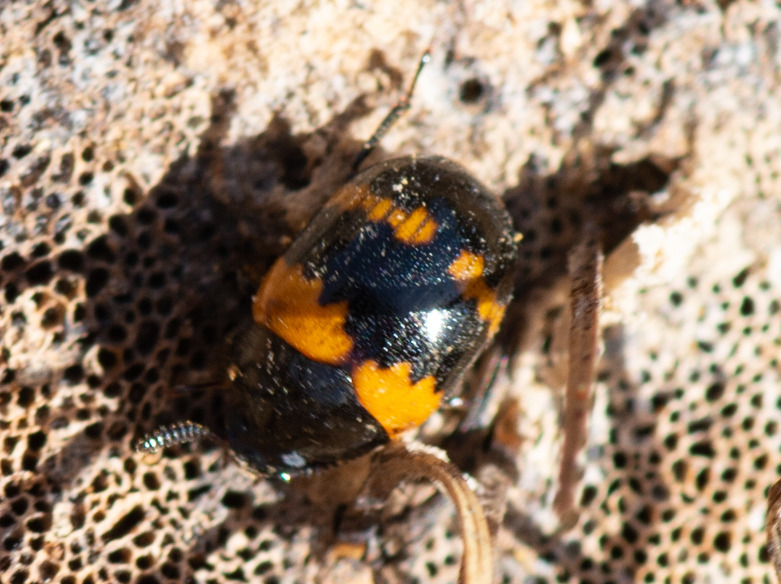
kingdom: Animalia
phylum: Arthropoda
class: Insecta
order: Coleoptera
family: Tenebrionidae
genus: Diaperis
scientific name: Diaperis boleti
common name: Tigerskyggebille
